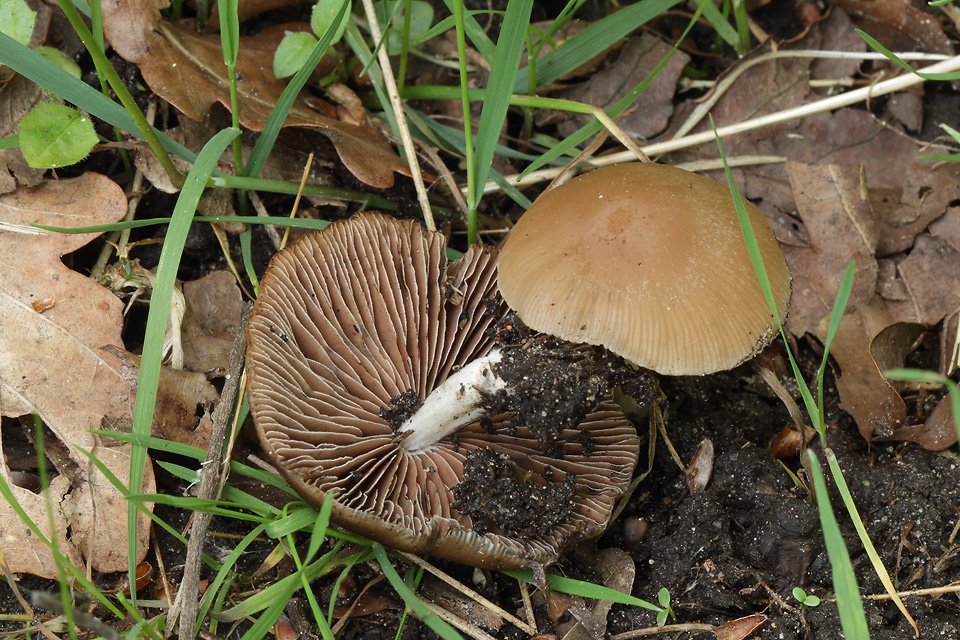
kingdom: Fungi
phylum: Basidiomycota
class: Agaricomycetes
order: Agaricales
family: Psathyrellaceae
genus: Psathyrella
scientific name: Psathyrella spadiceogrisea
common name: gråbrun mørkhat
